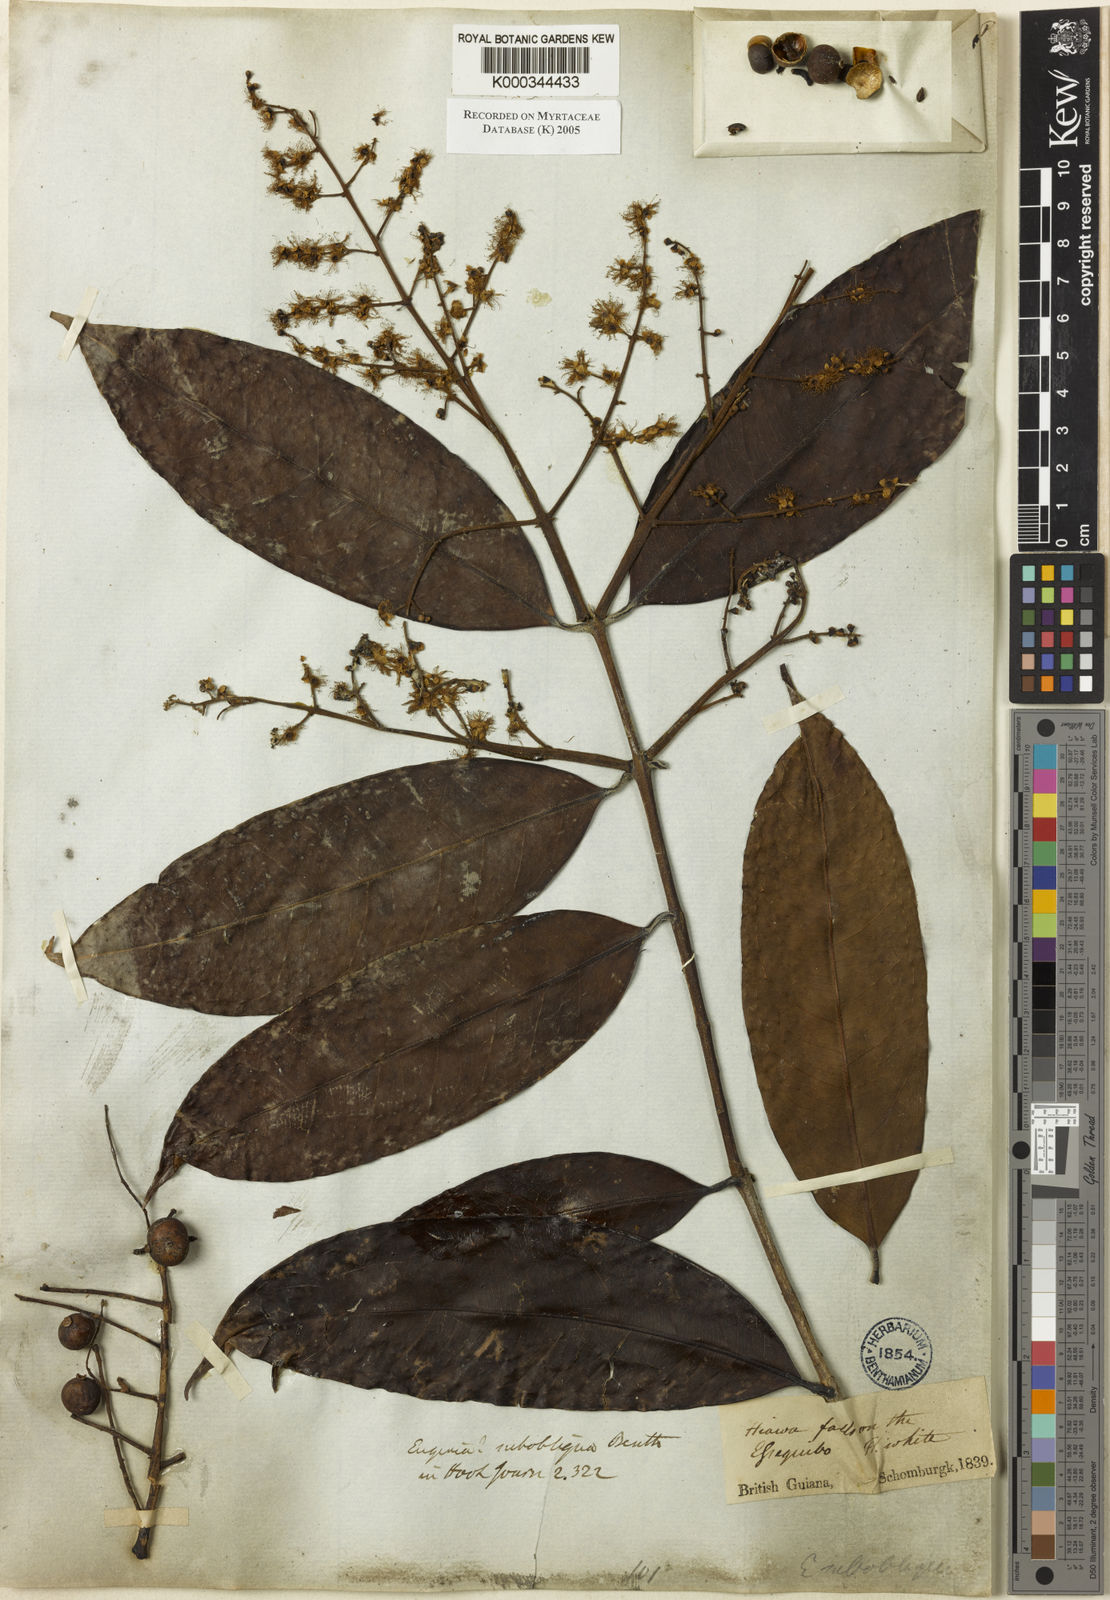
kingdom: Plantae
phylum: Tracheophyta
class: Magnoliopsida
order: Myrtales
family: Myrtaceae
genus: Myrcia
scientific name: Myrcia subobliqua
